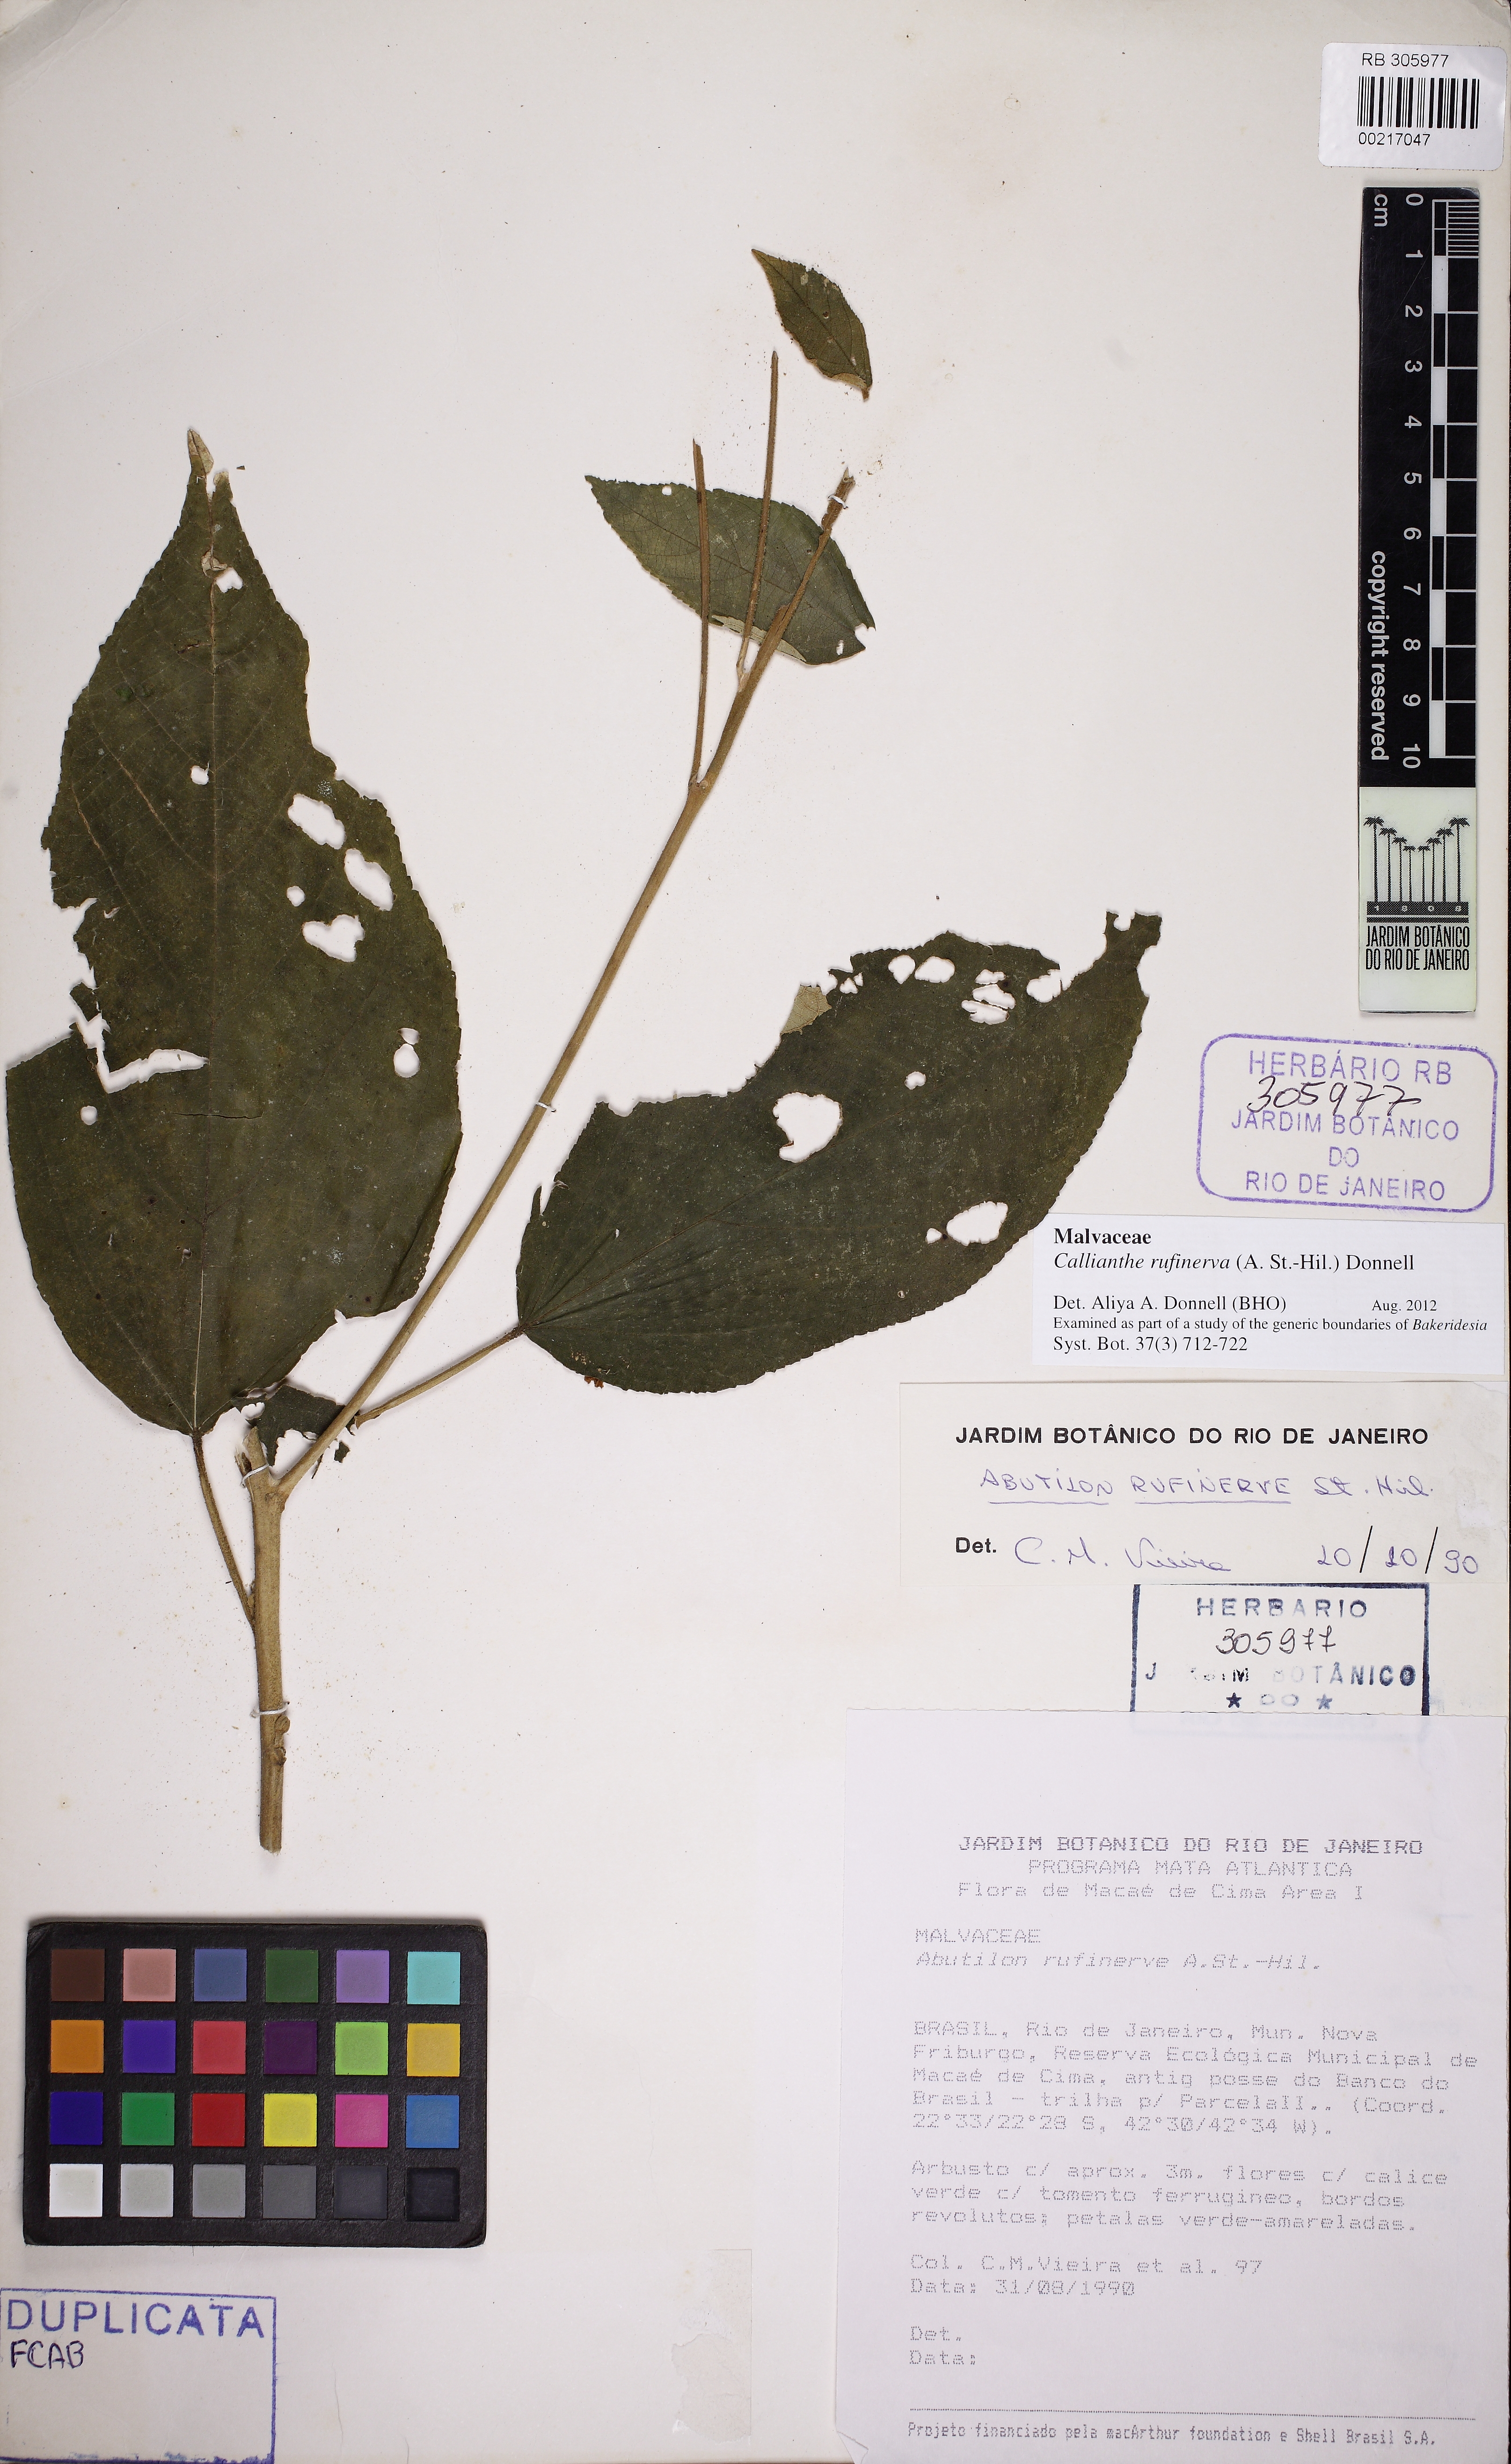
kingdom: Plantae
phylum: Tracheophyta
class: Magnoliopsida
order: Malvales
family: Malvaceae
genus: Callianthe
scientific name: Callianthe rufinerva
